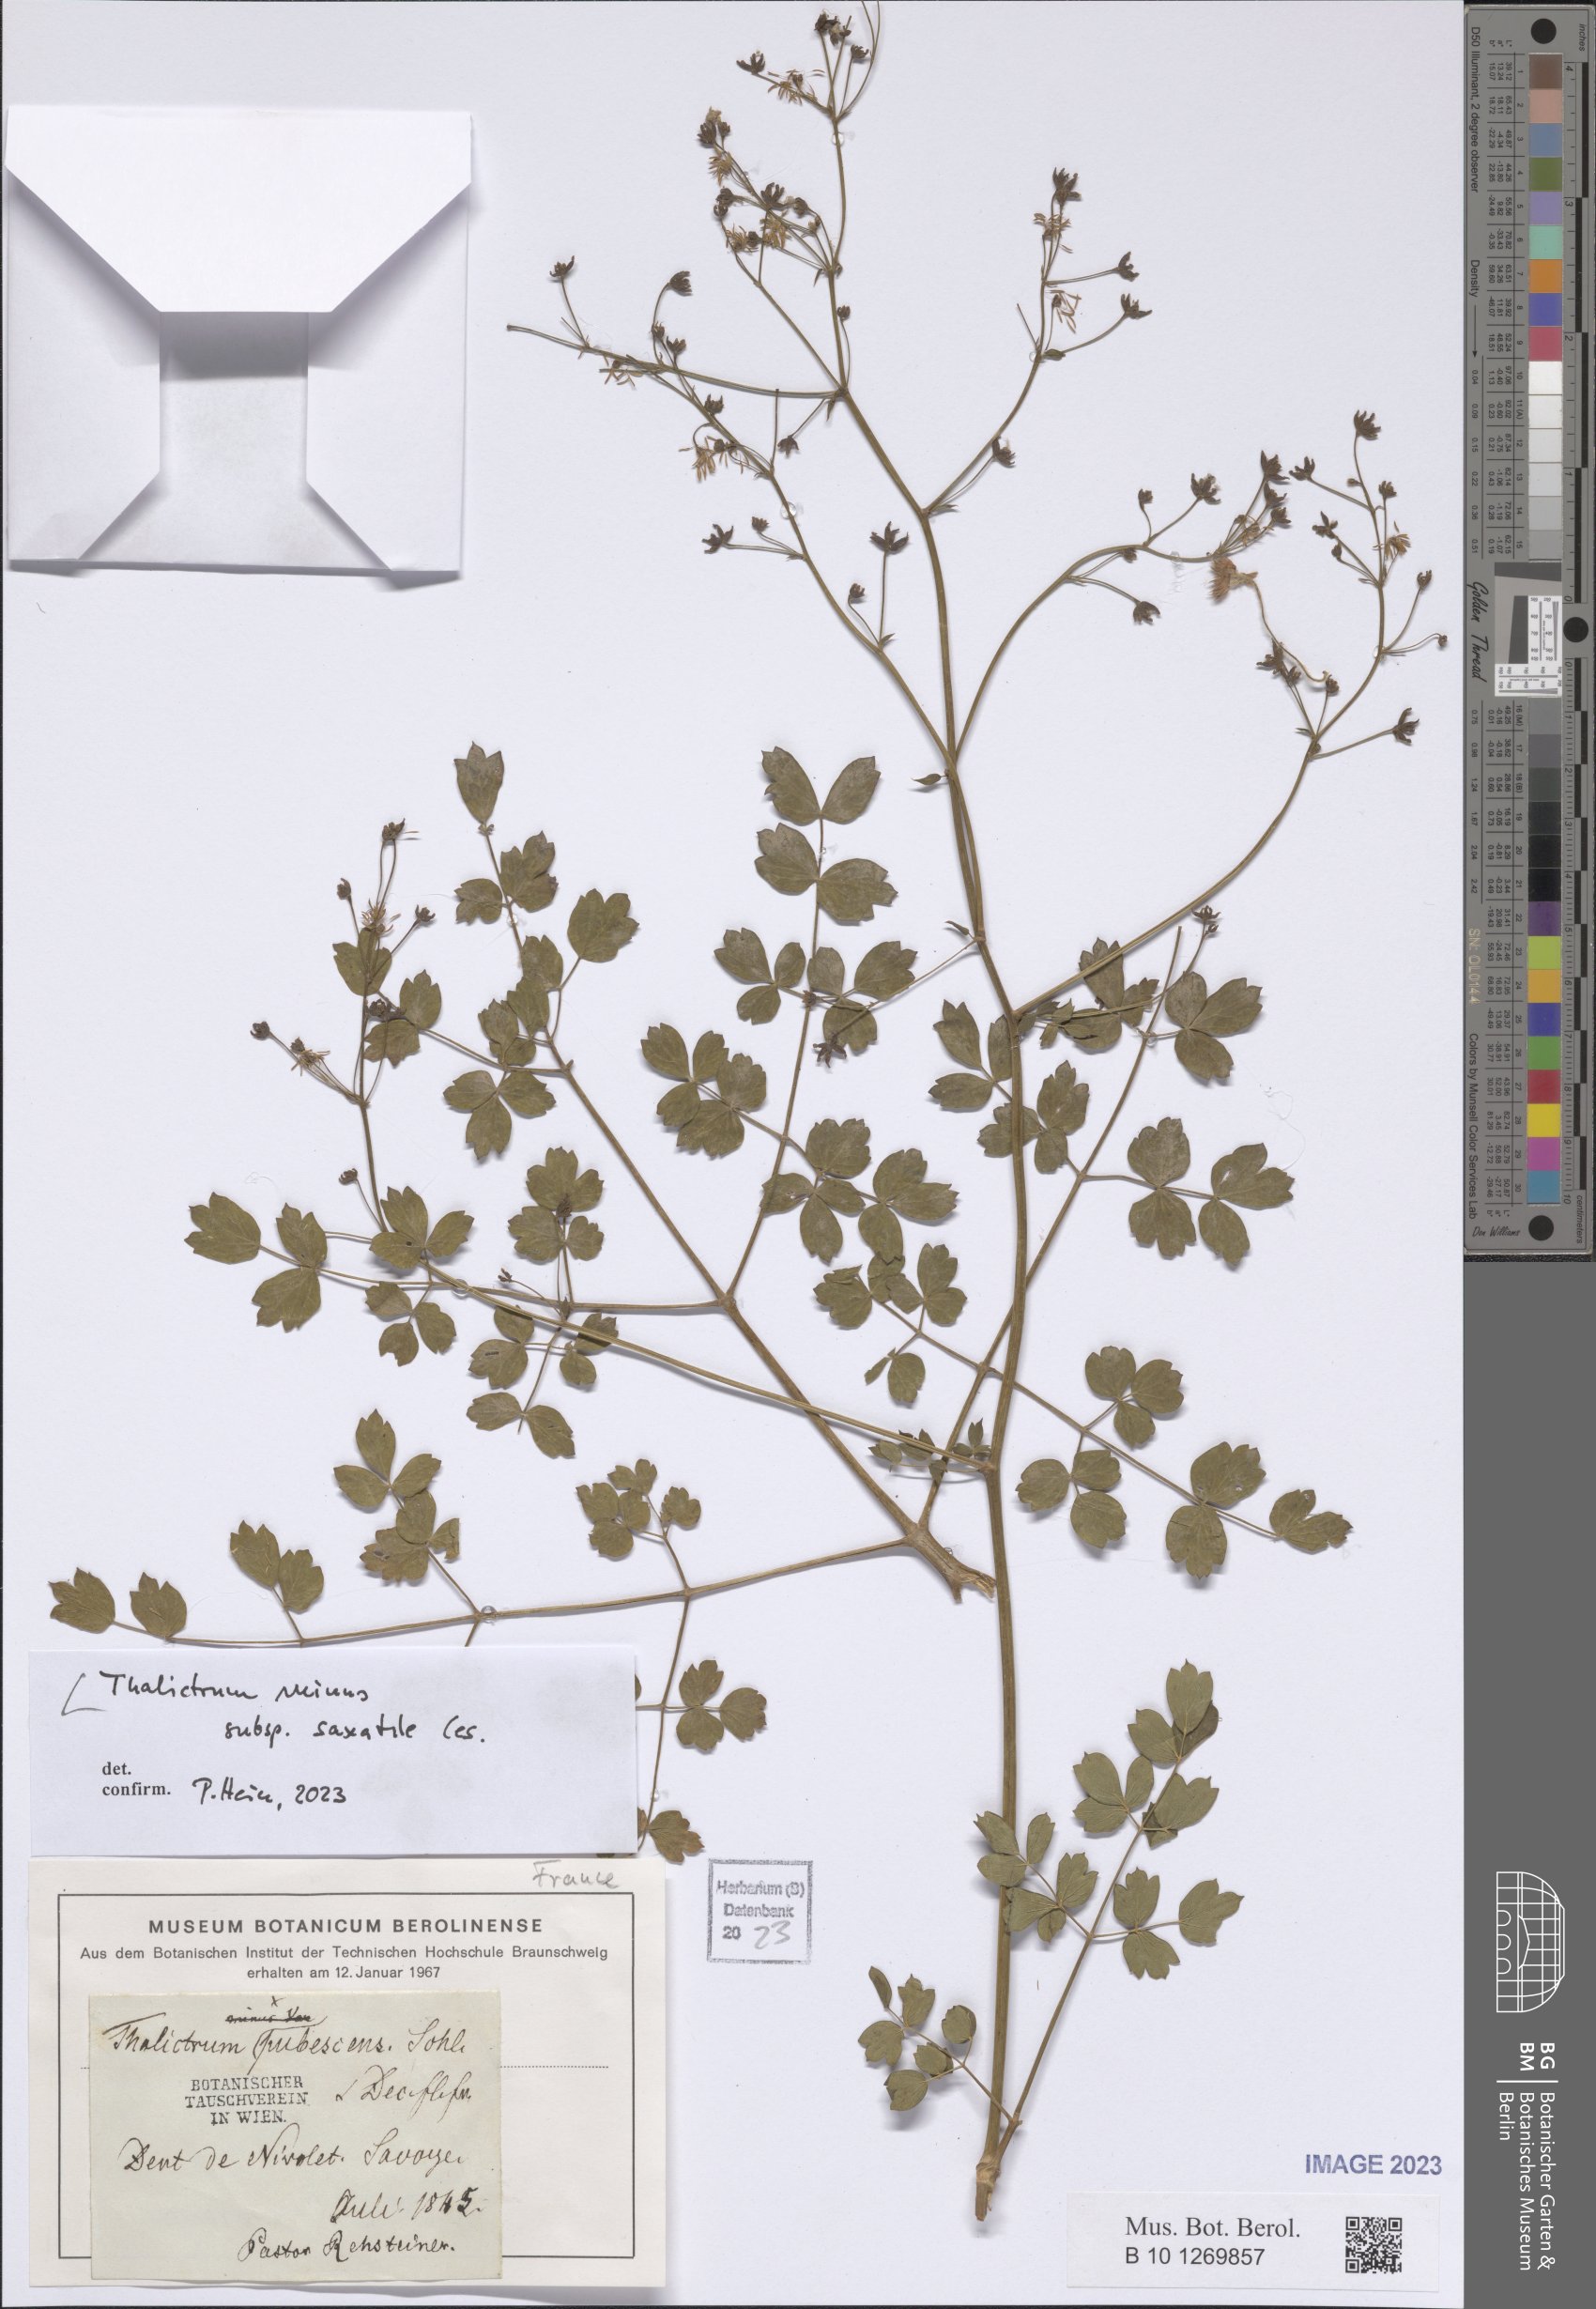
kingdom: Plantae
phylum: Tracheophyta
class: Magnoliopsida
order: Ranunculales
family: Ranunculaceae
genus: Thalictrum
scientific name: Thalictrum minus
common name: Lesser meadow-rue
